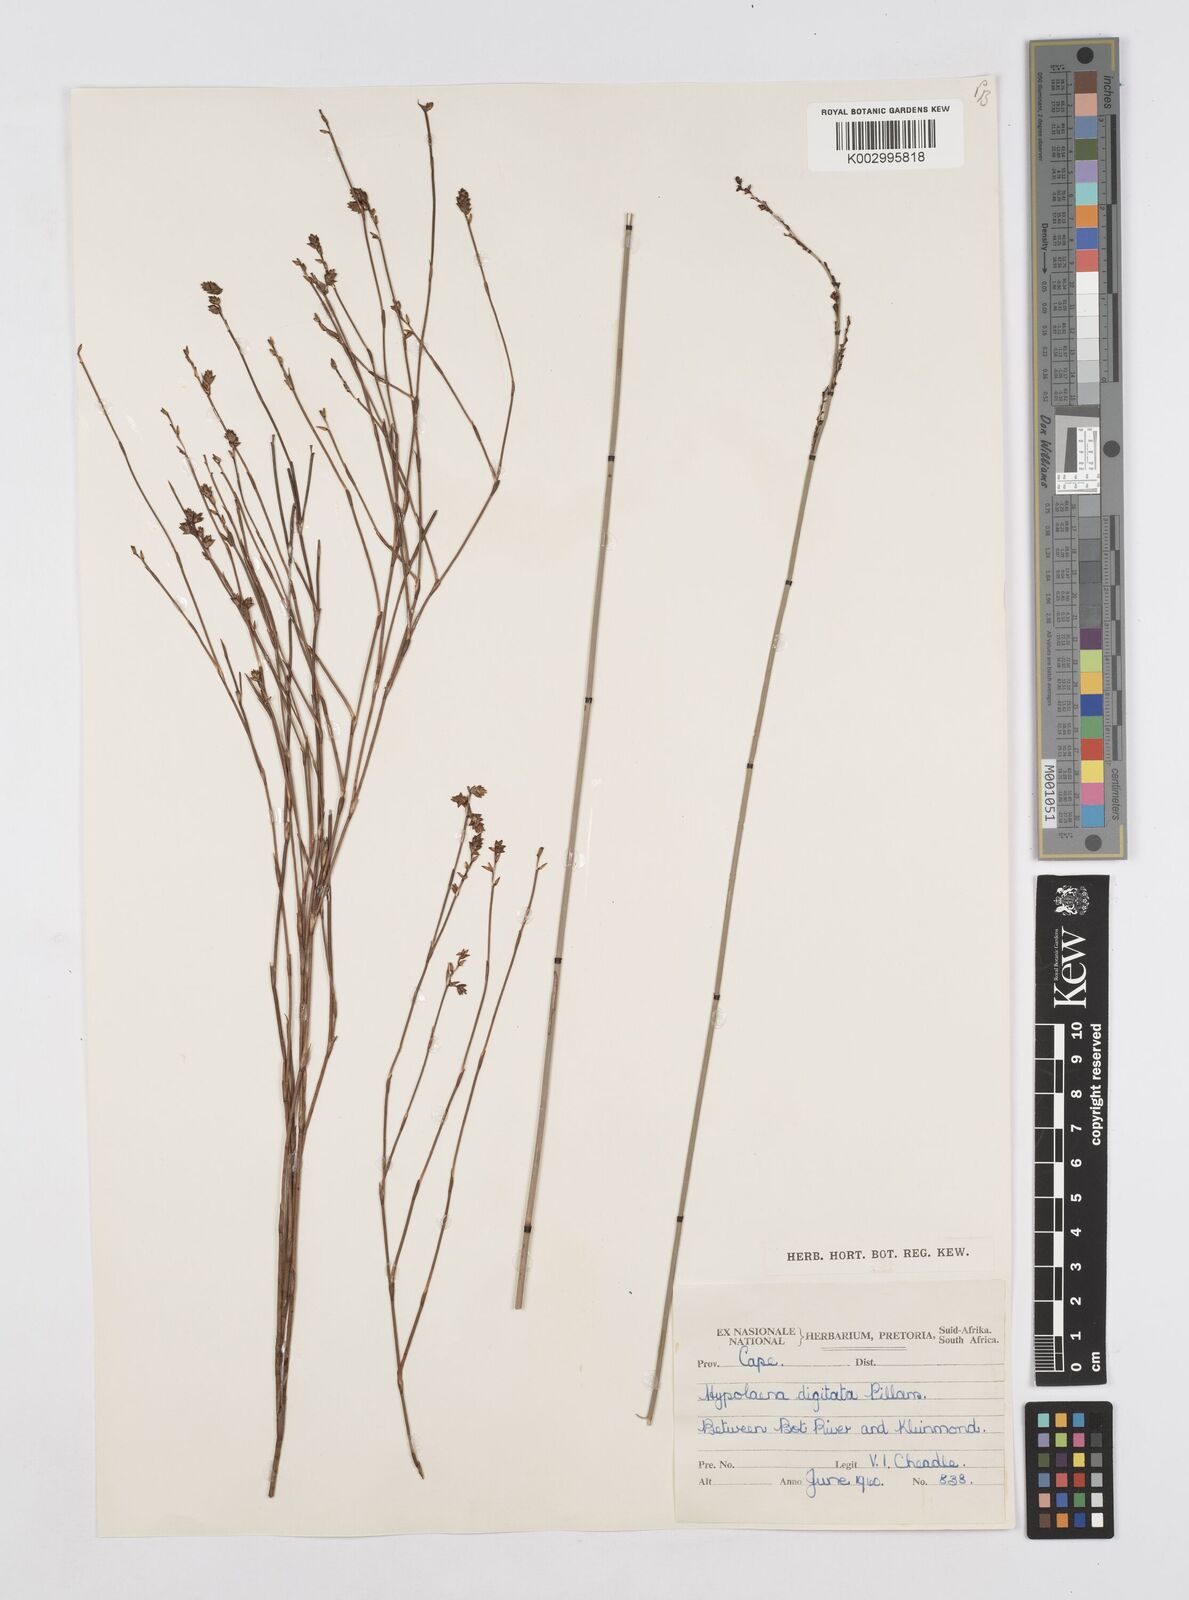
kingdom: Plantae
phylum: Tracheophyta
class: Liliopsida
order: Poales
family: Restionaceae
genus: Mastersiella
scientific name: Mastersiella digitata
